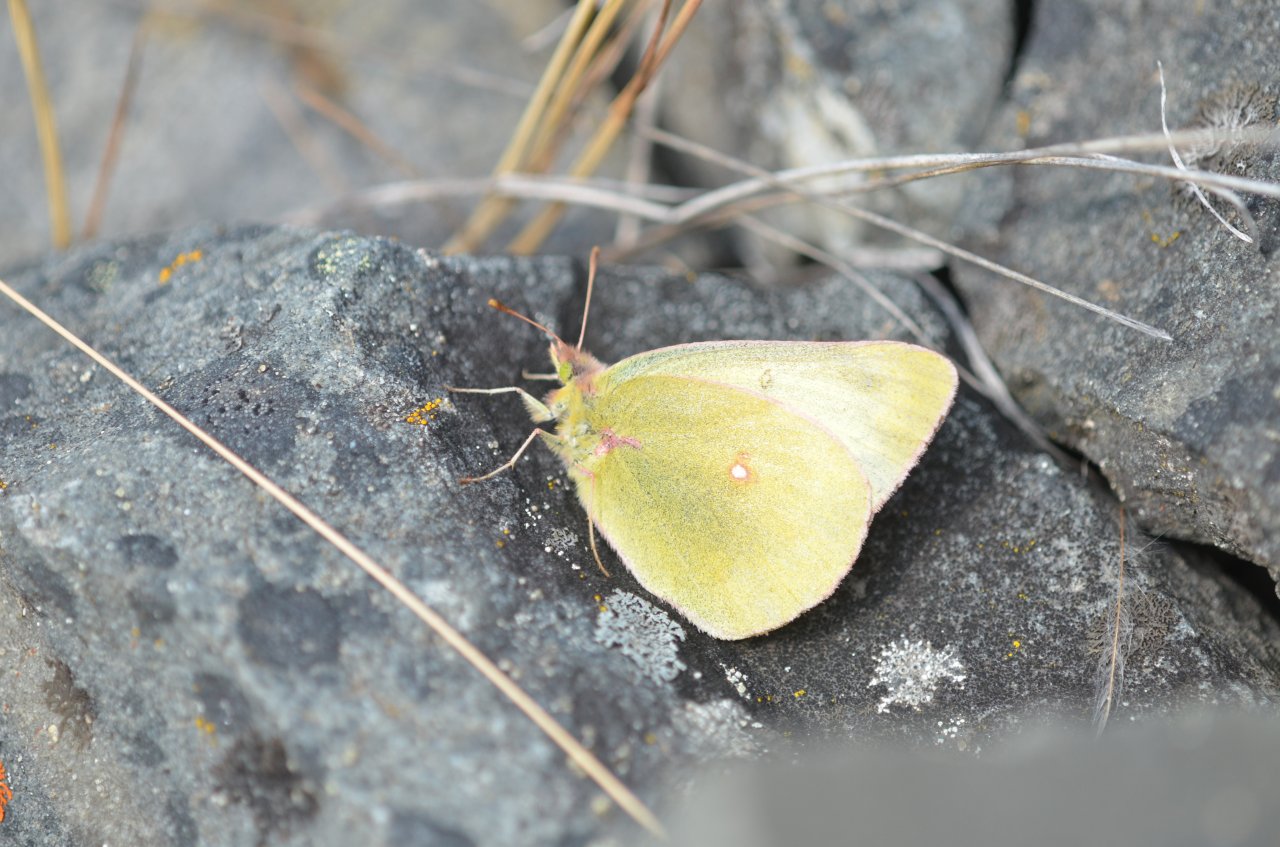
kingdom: Animalia
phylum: Arthropoda
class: Insecta
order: Lepidoptera
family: Pieridae
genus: Colias
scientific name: Colias gigantea
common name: Giant Sulphur
